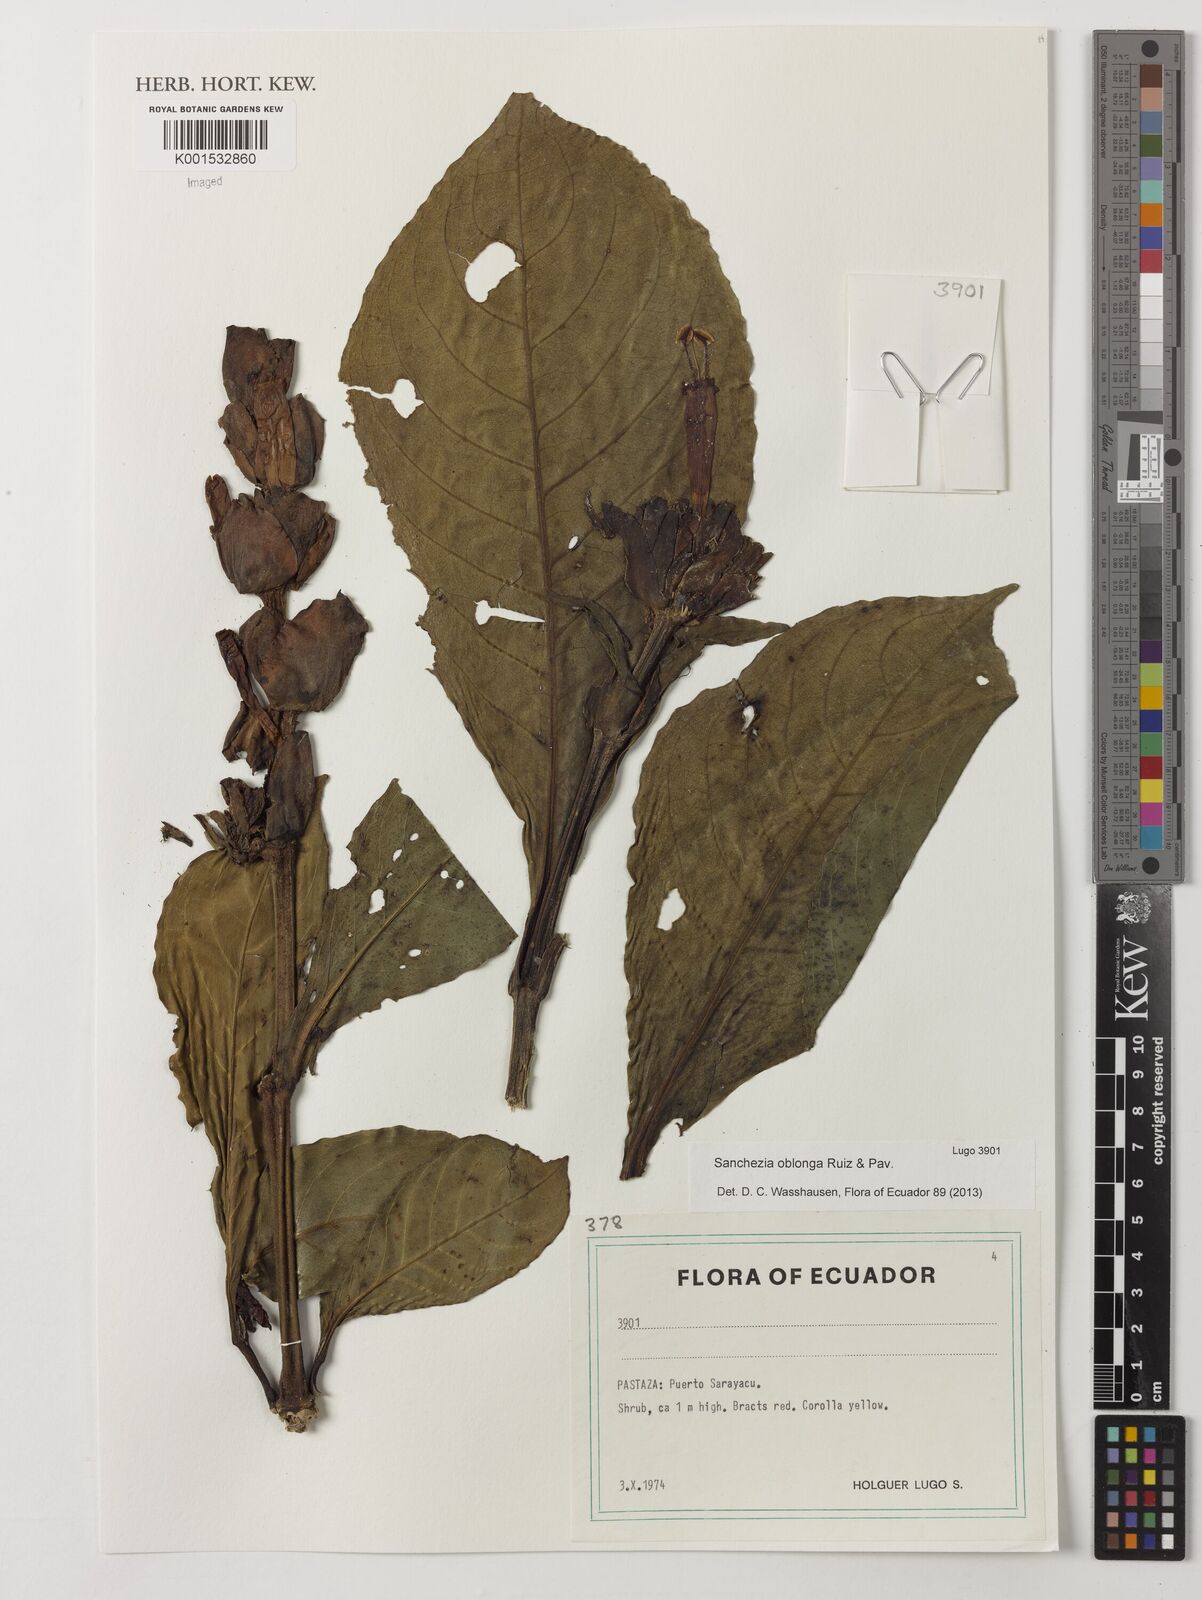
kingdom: Plantae
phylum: Tracheophyta
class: Magnoliopsida
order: Lamiales
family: Acanthaceae
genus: Sanchezia
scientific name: Sanchezia oblonga
